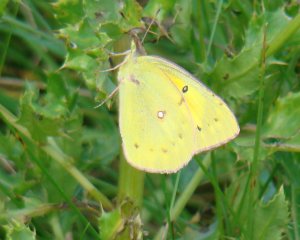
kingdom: Animalia
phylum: Arthropoda
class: Insecta
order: Lepidoptera
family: Pieridae
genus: Colias
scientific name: Colias philodice
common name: Clouded Sulphur
